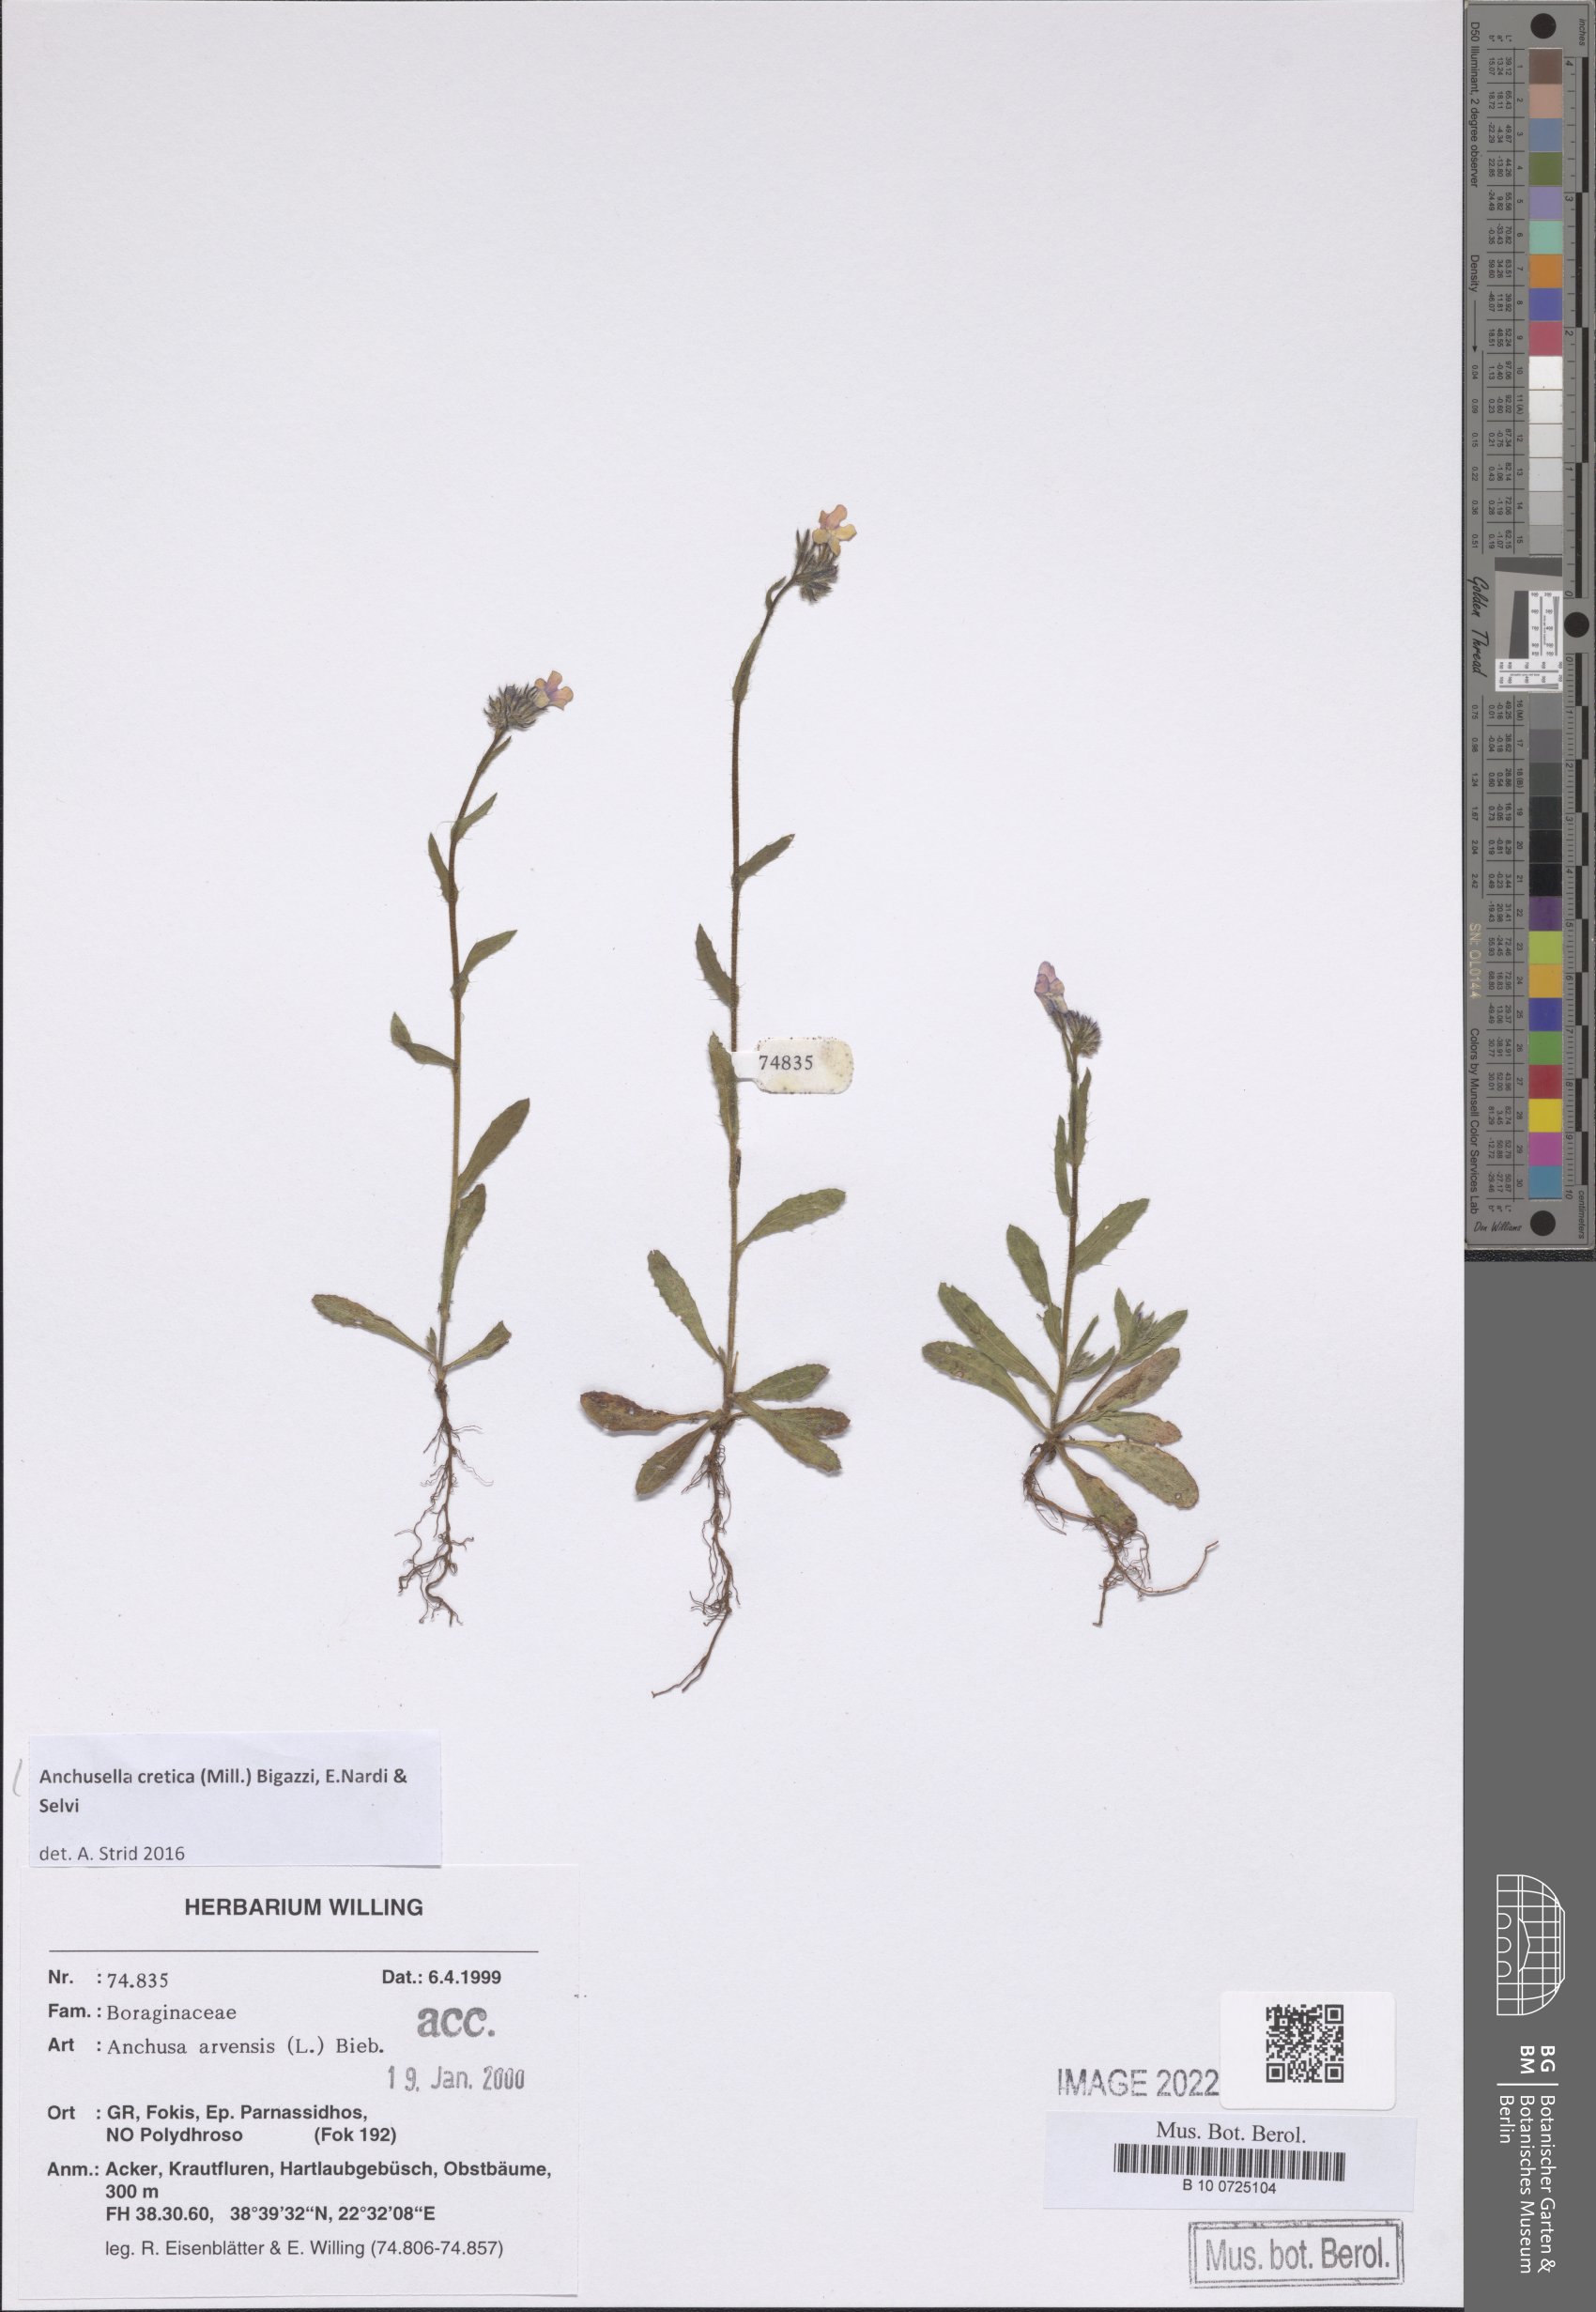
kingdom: Plantae
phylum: Tracheophyta
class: Magnoliopsida
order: Boraginales
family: Boraginaceae
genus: Anchusella
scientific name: Anchusella cretica
